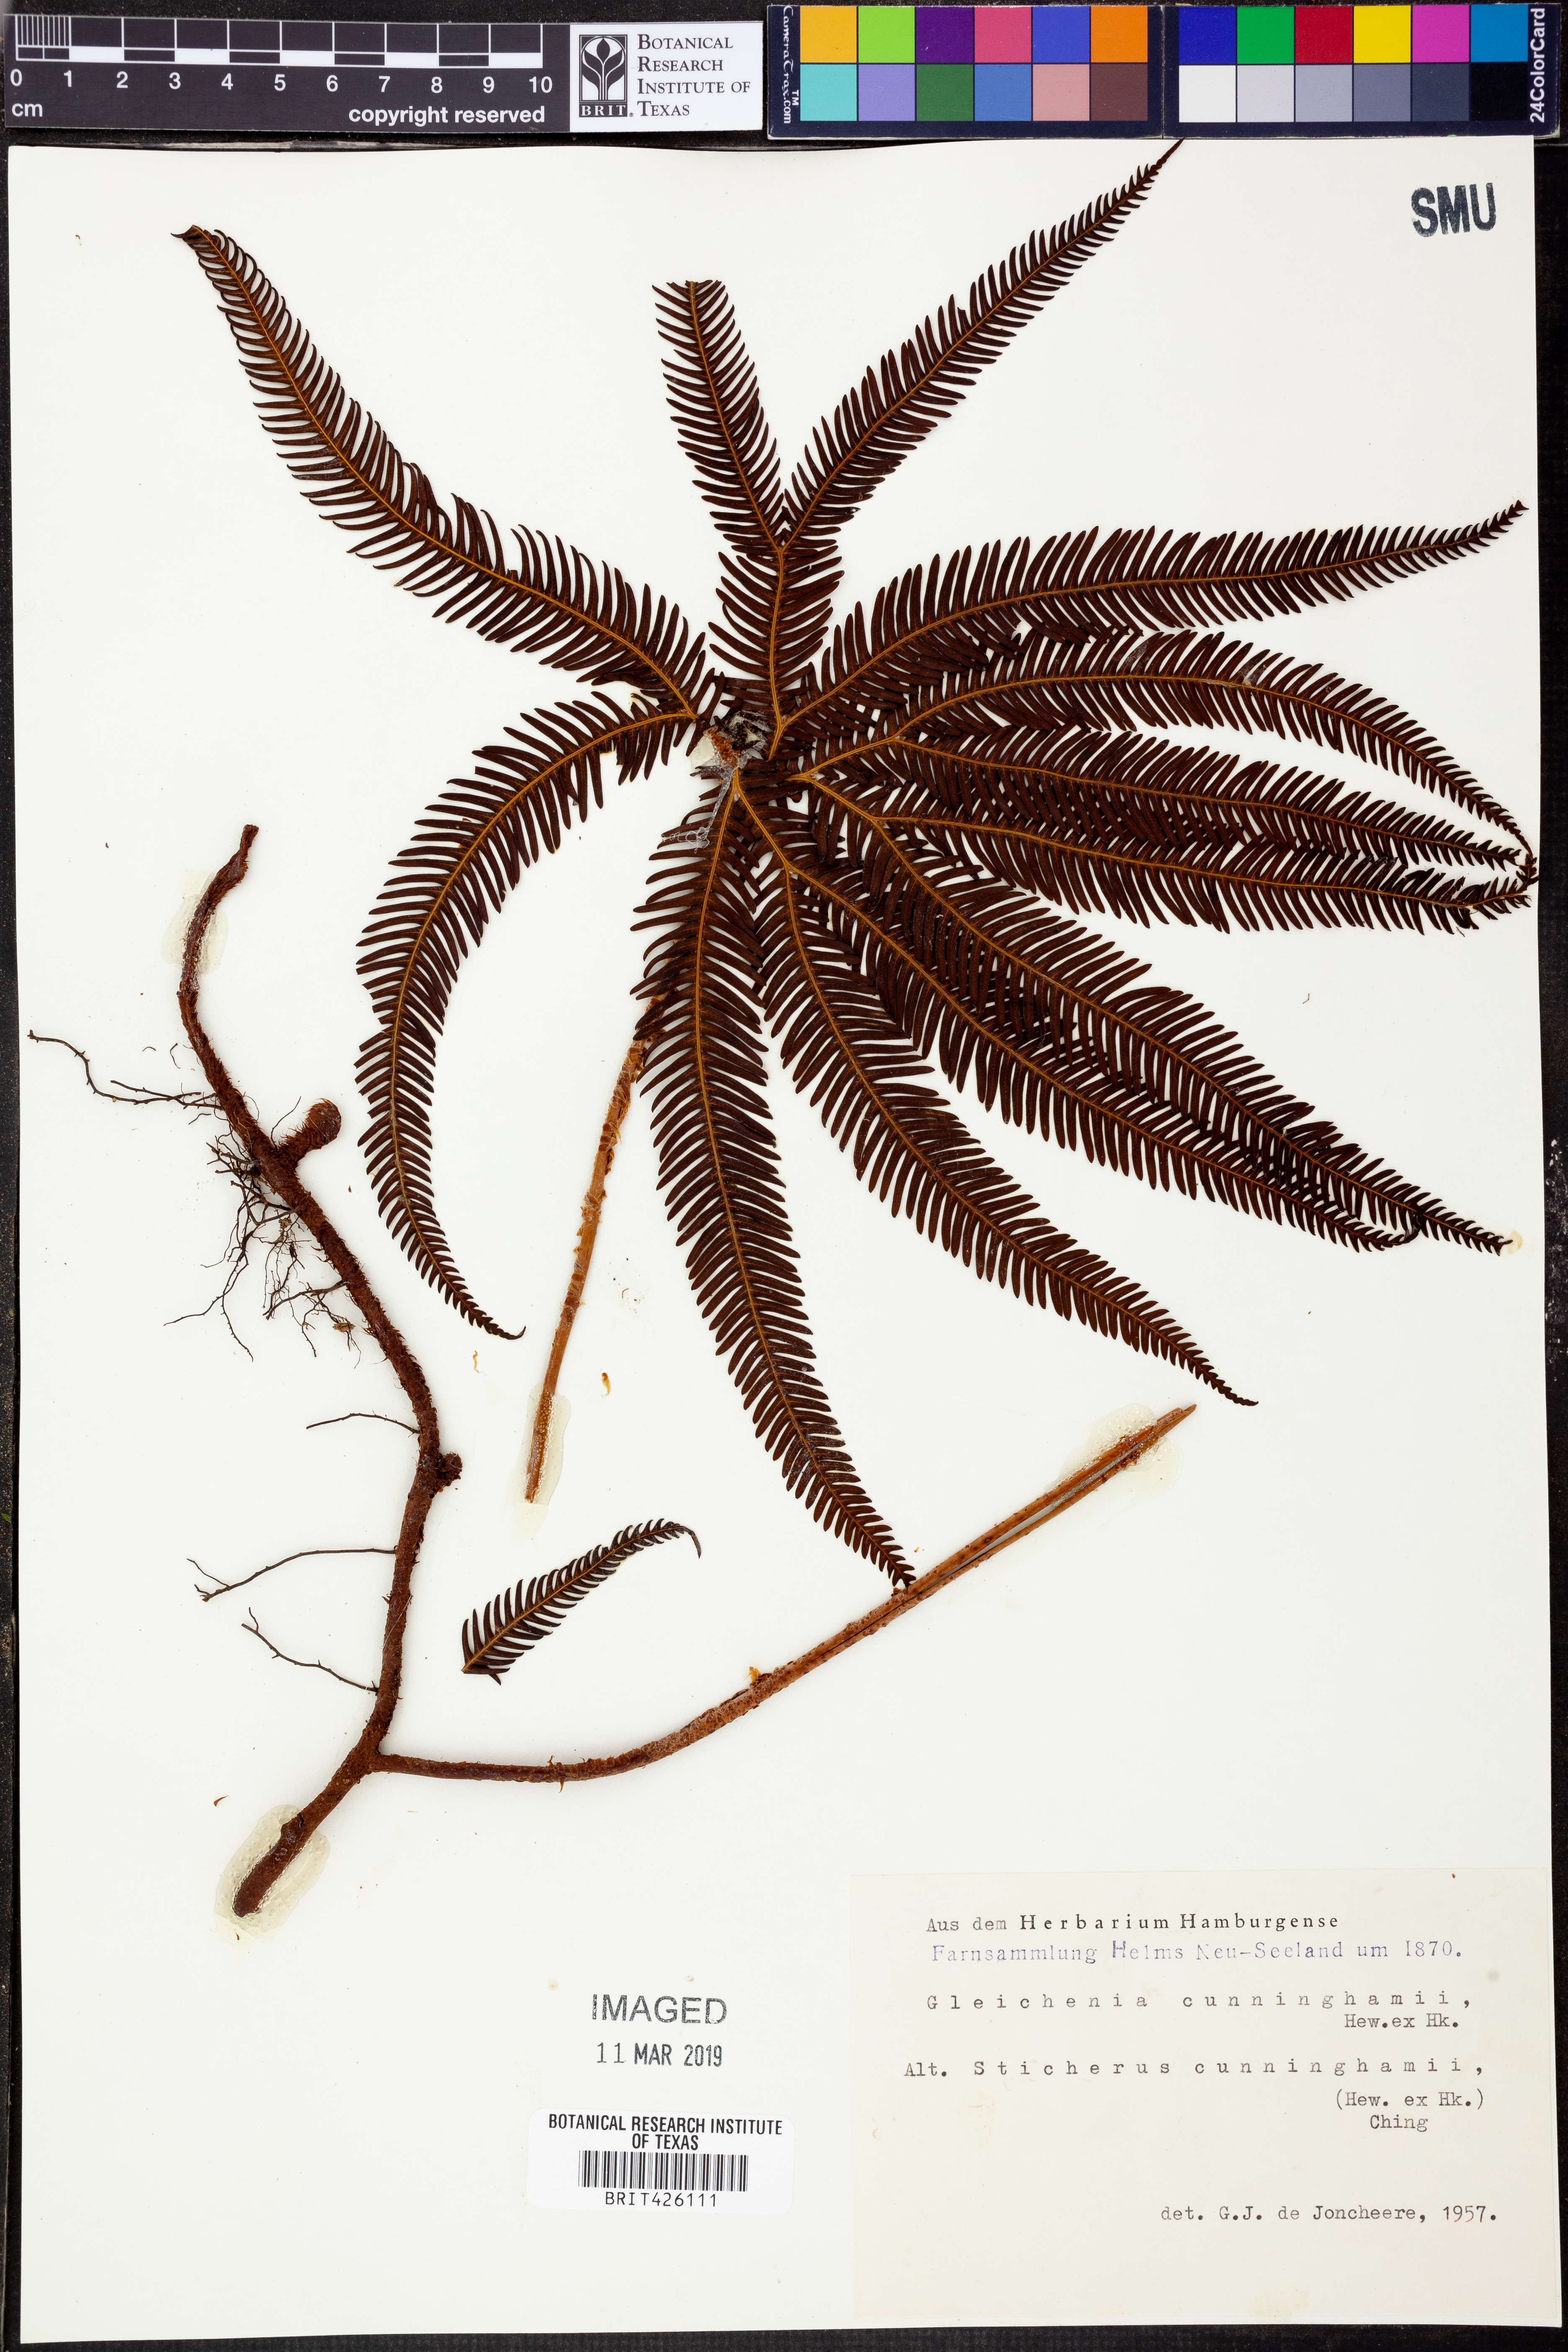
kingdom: Plantae
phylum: Tracheophyta
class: Polypodiopsida
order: Gleicheniales
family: Gleicheniaceae
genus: Sticherus
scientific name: Sticherus cunninghamii
